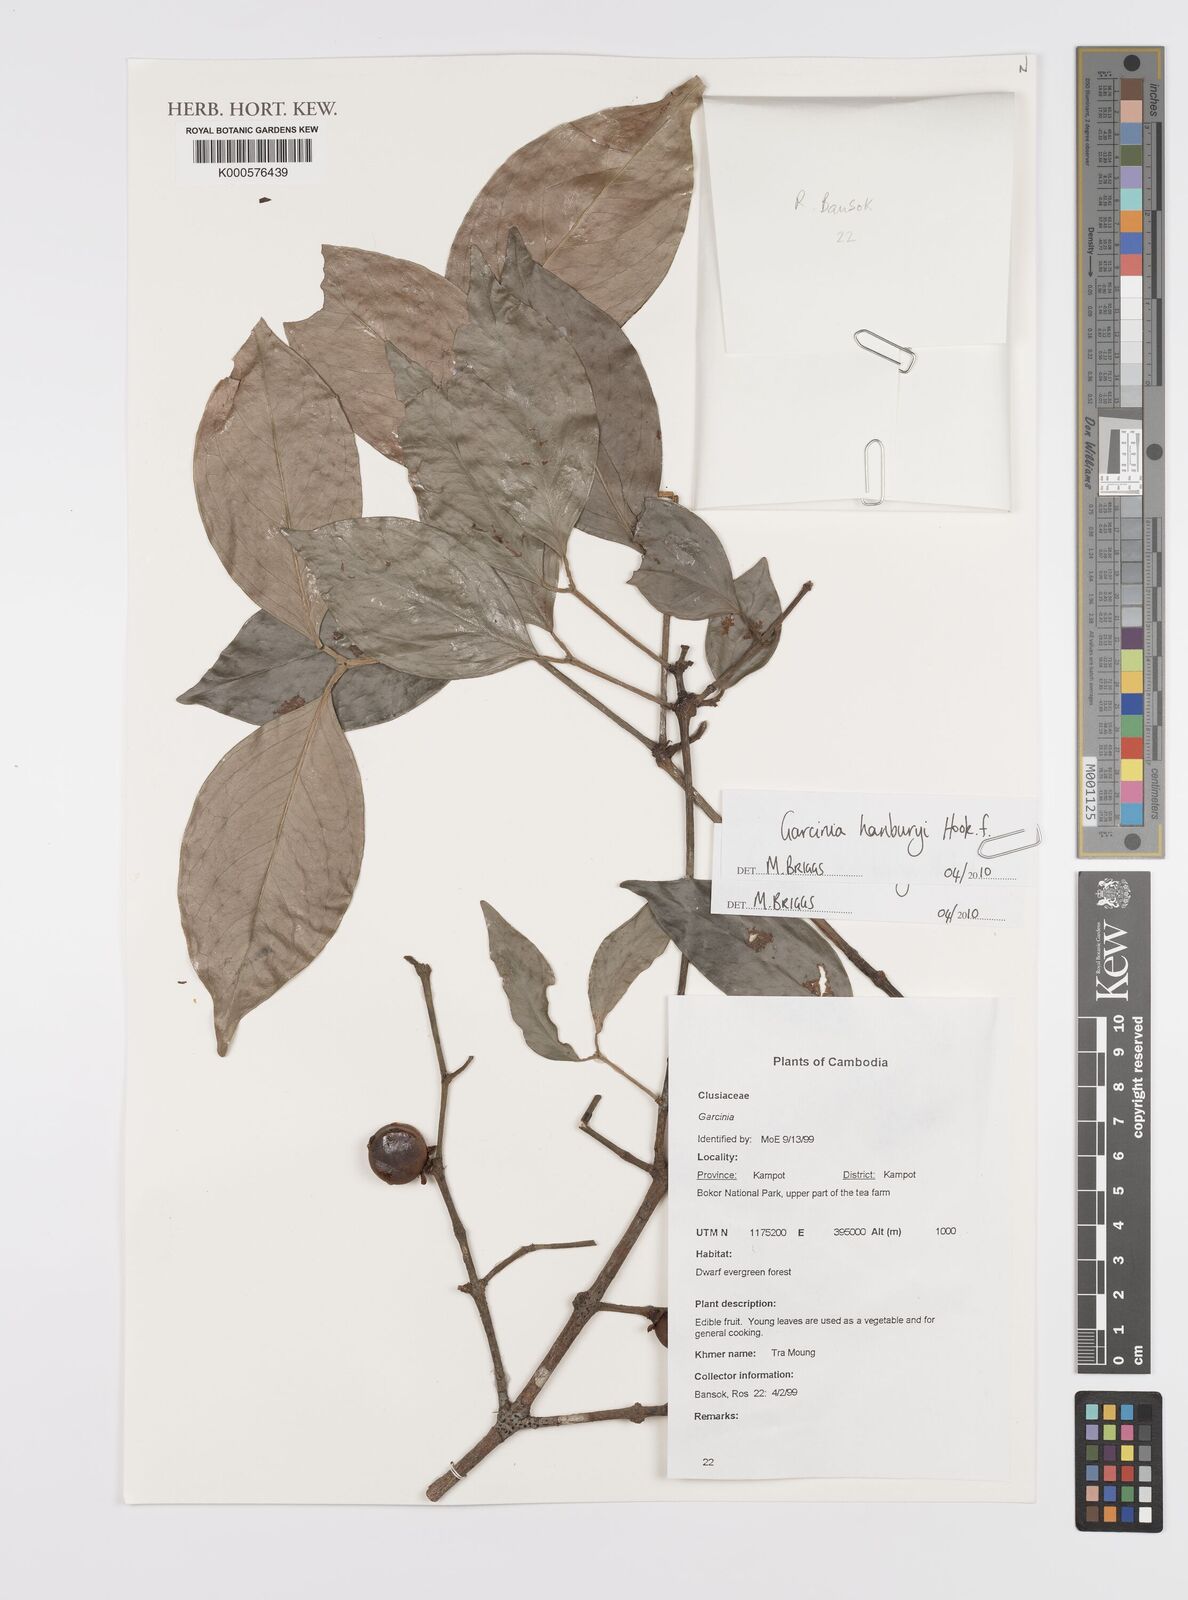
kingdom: Plantae
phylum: Tracheophyta
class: Magnoliopsida
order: Malpighiales
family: Clusiaceae
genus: Garcinia
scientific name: Garcinia hanburyi
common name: Siam gamboge
